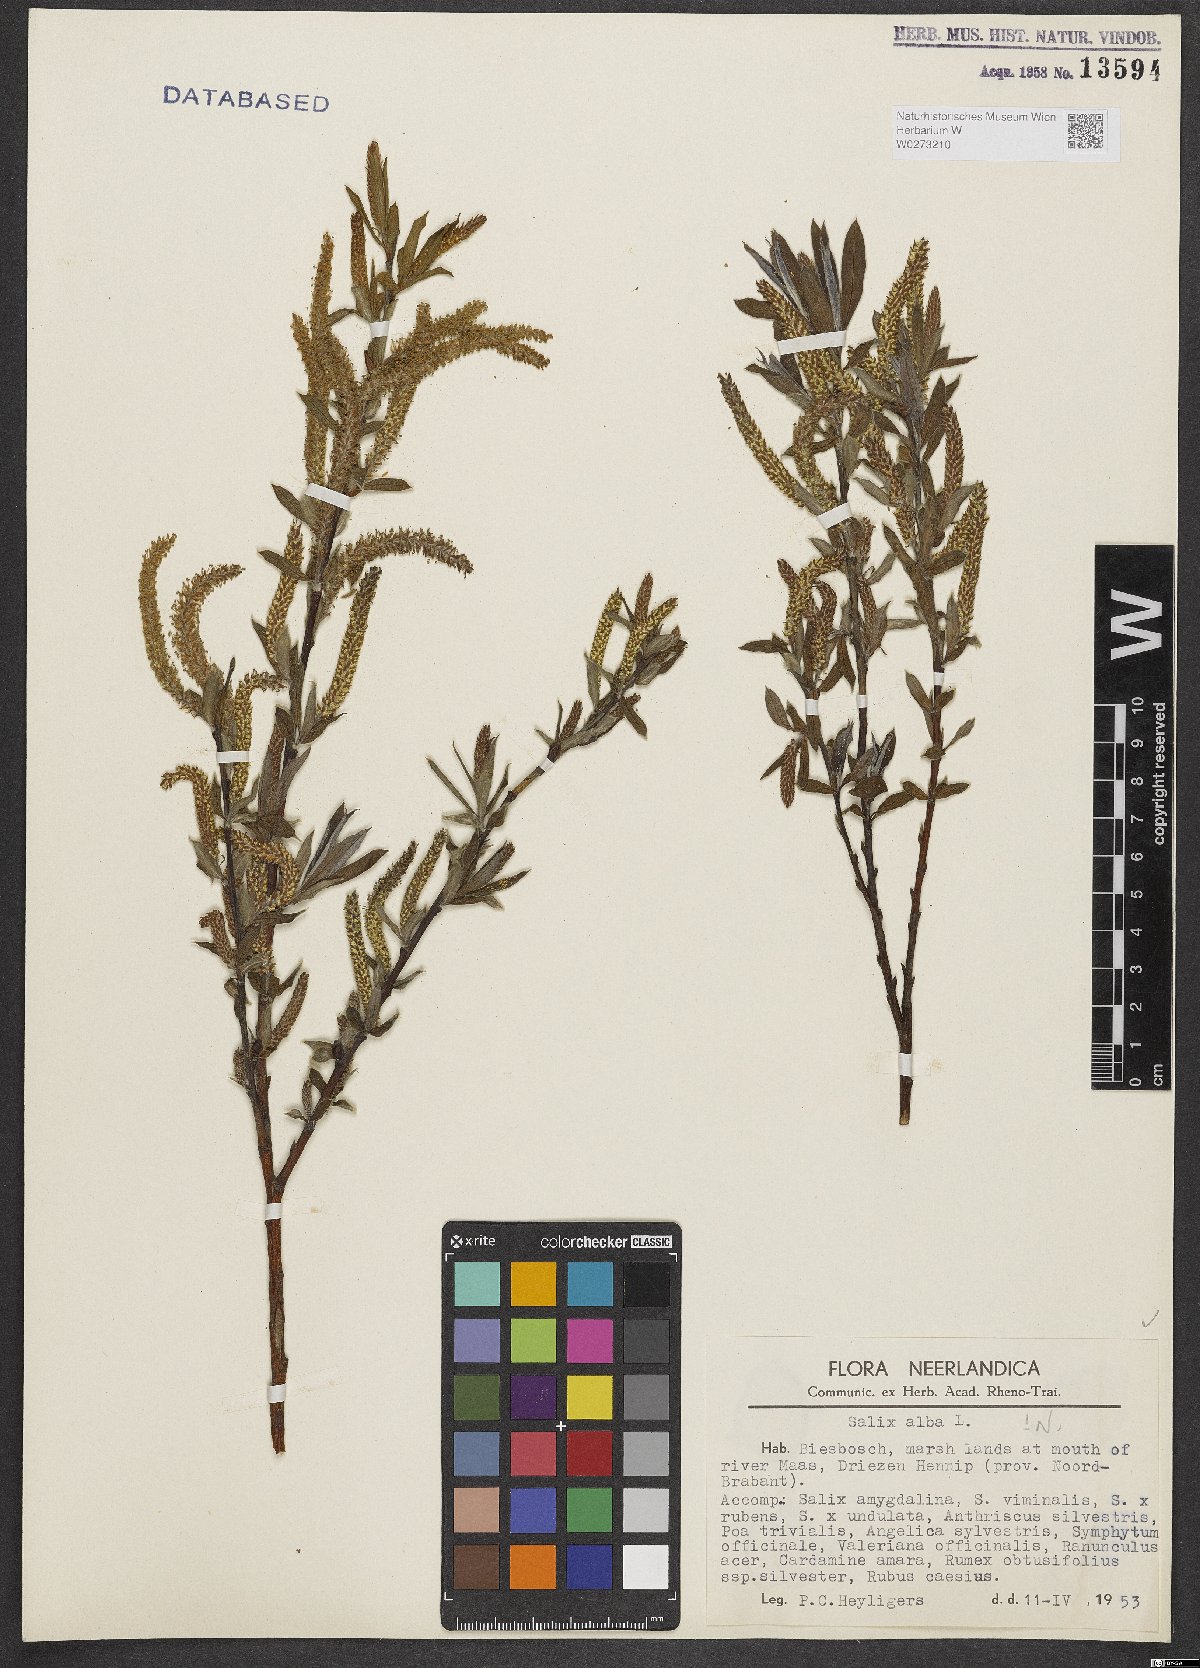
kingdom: Plantae
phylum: Tracheophyta
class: Magnoliopsida
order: Malpighiales
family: Salicaceae
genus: Salix
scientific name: Salix alba
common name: White willow
